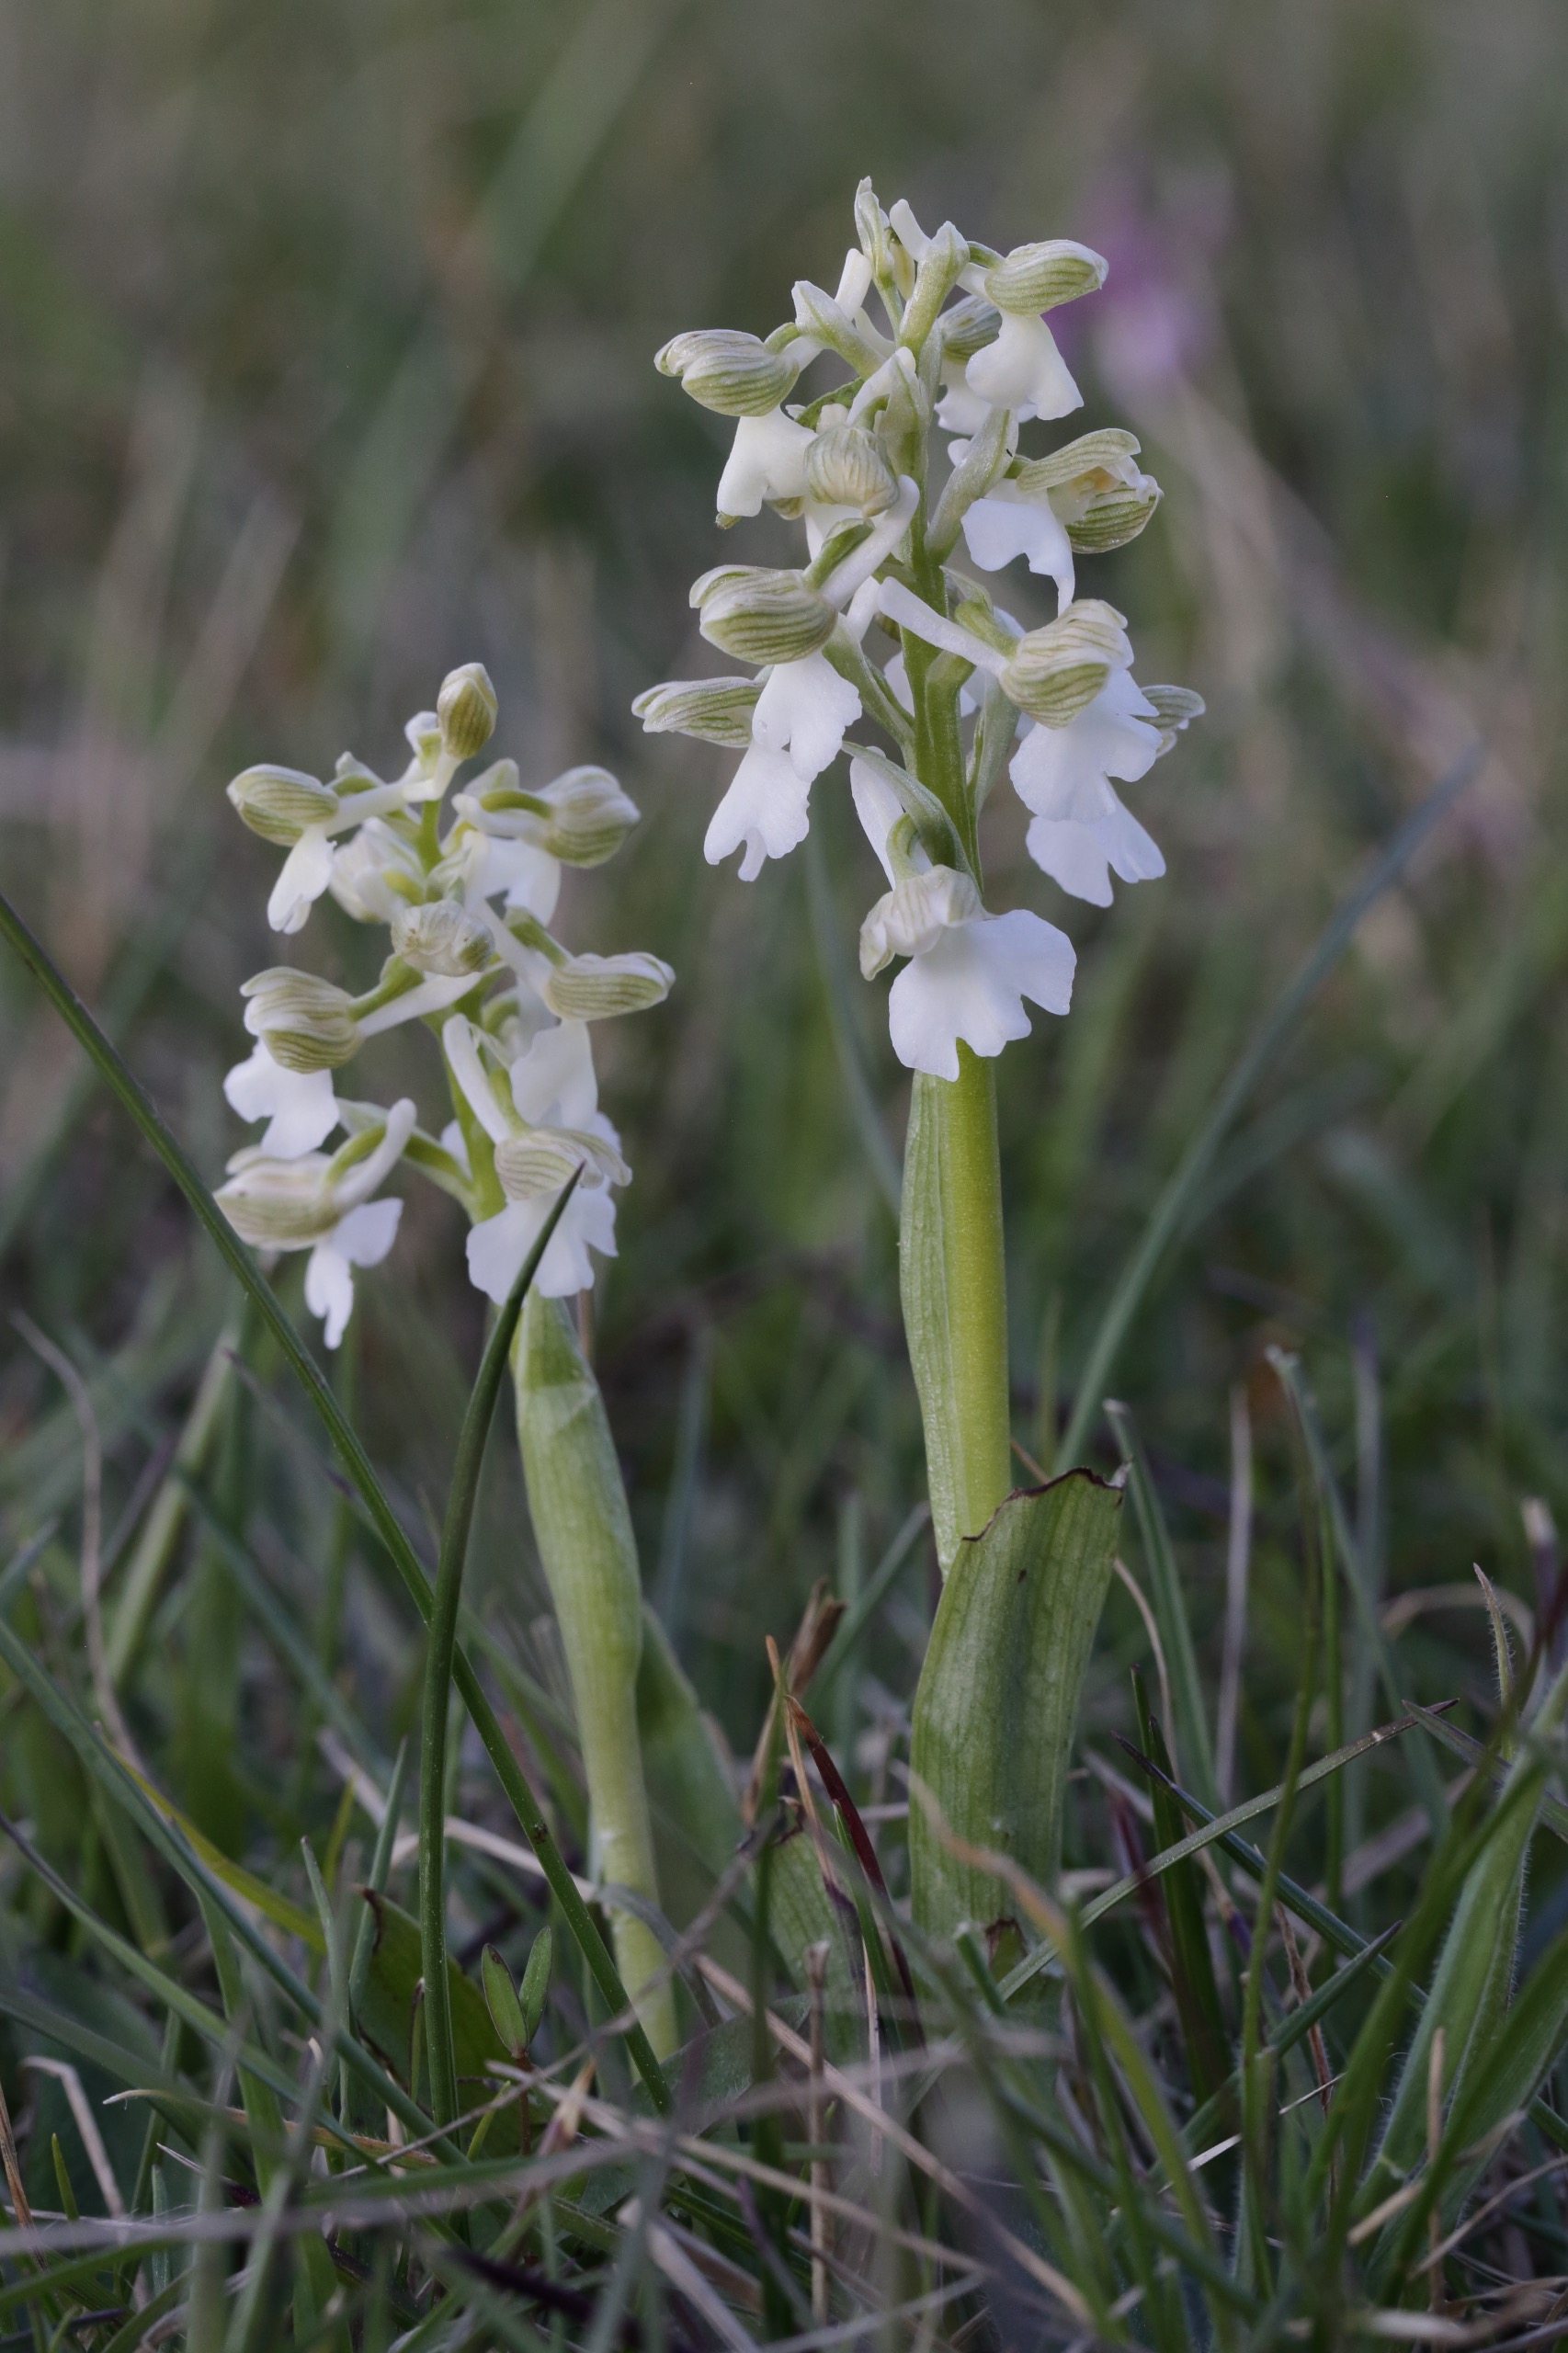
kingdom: Plantae
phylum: Tracheophyta
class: Liliopsida
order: Asparagales
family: Orchidaceae
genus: Anacamptis
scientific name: Anacamptis morio
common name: Salepgøgeurt
